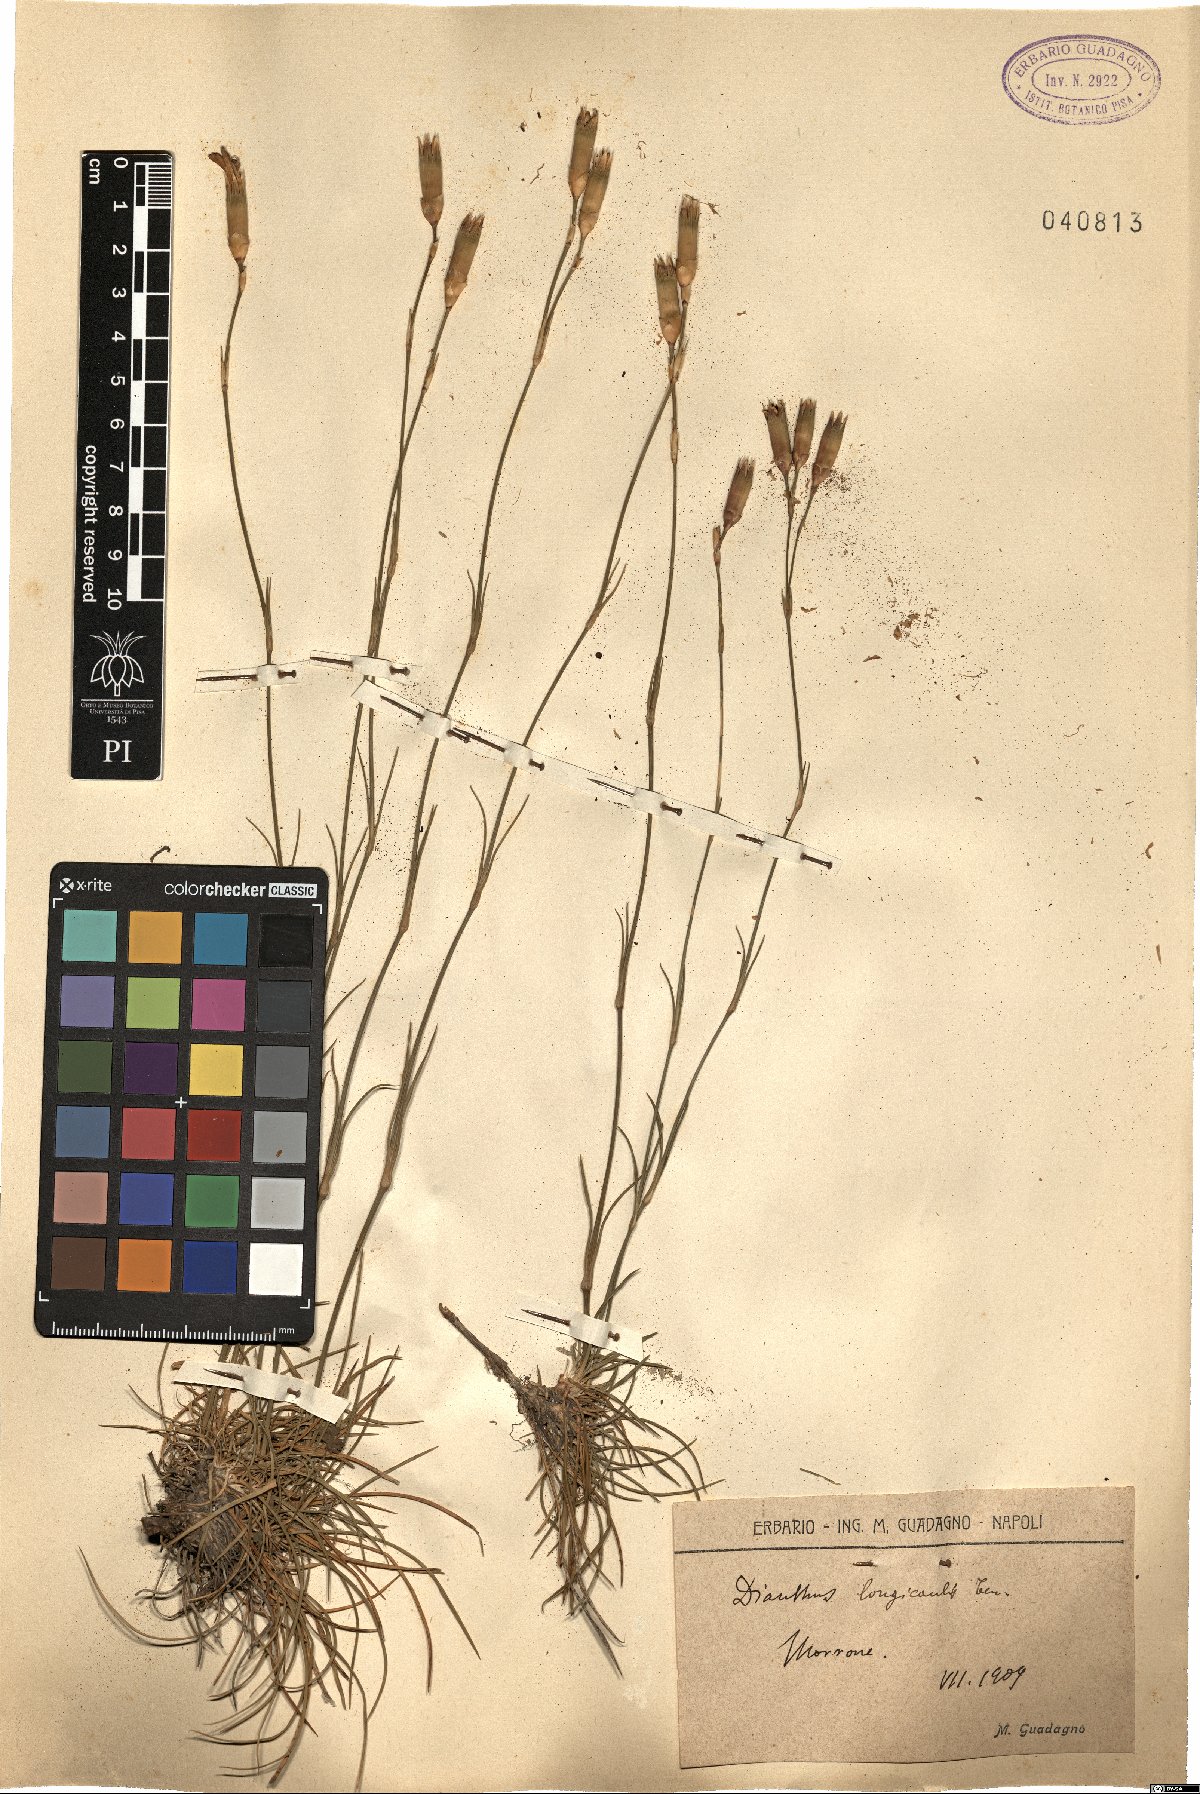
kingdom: Plantae
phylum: Tracheophyta
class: Magnoliopsida
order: Caryophyllales
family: Caryophyllaceae
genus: Dianthus
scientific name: Dianthus virgineus
